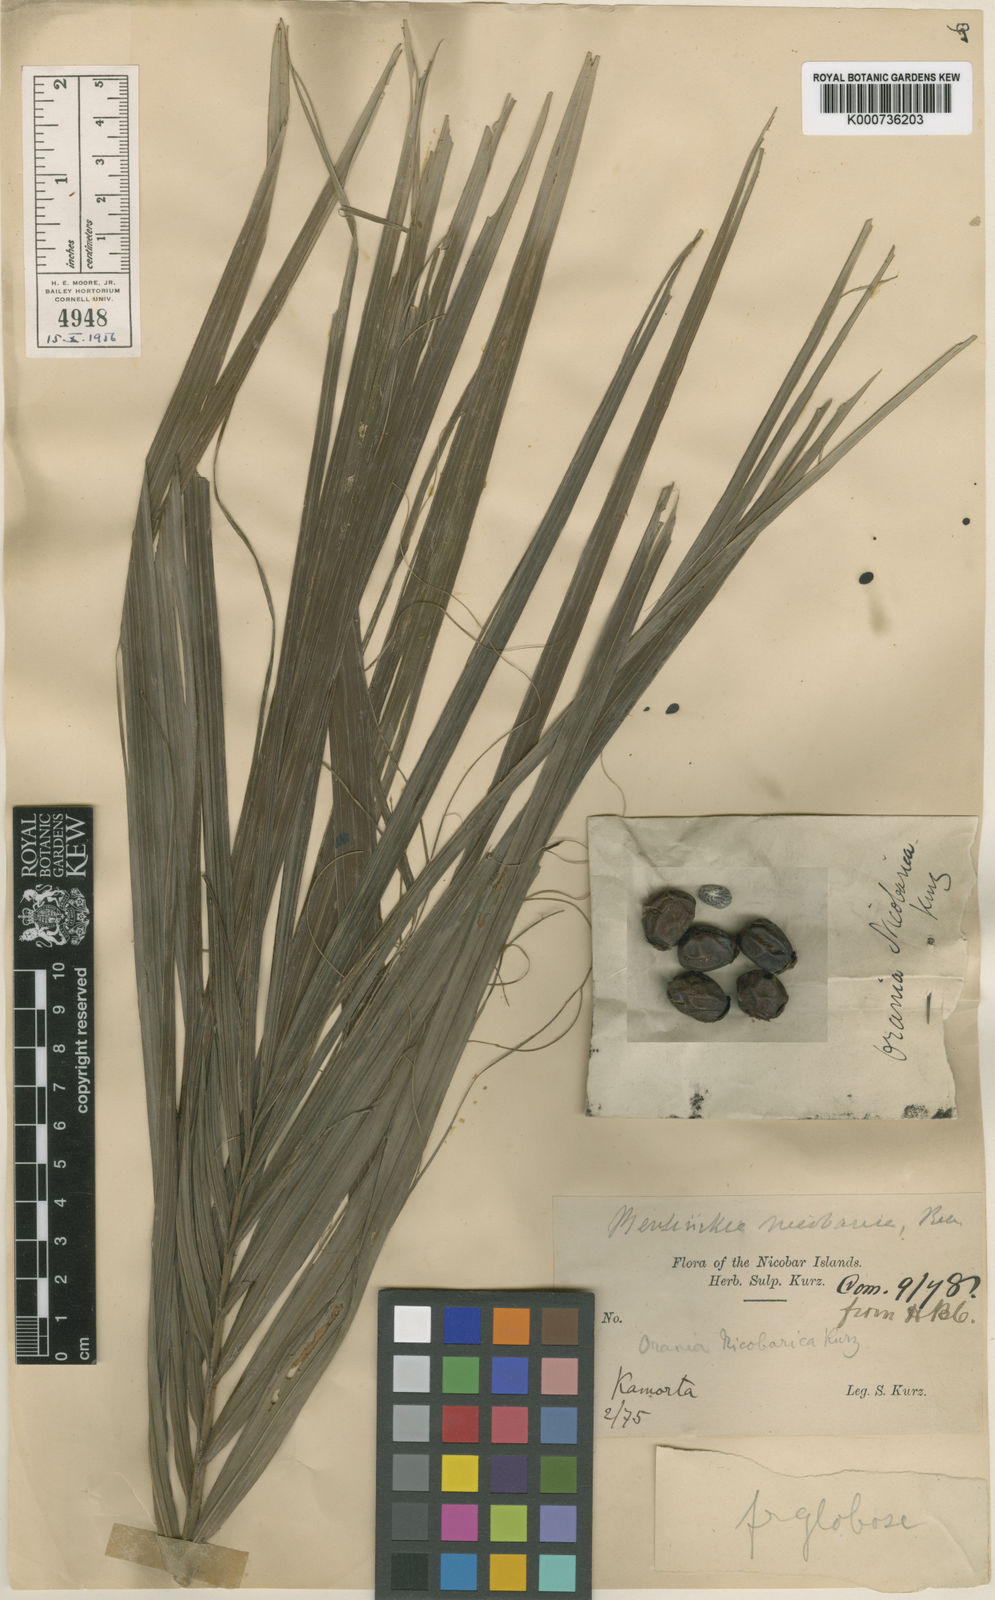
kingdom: Plantae
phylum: Tracheophyta
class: Liliopsida
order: Arecales
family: Arecaceae
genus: Bentinckia
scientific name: Bentinckia nicobarica
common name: Nicobar palm
